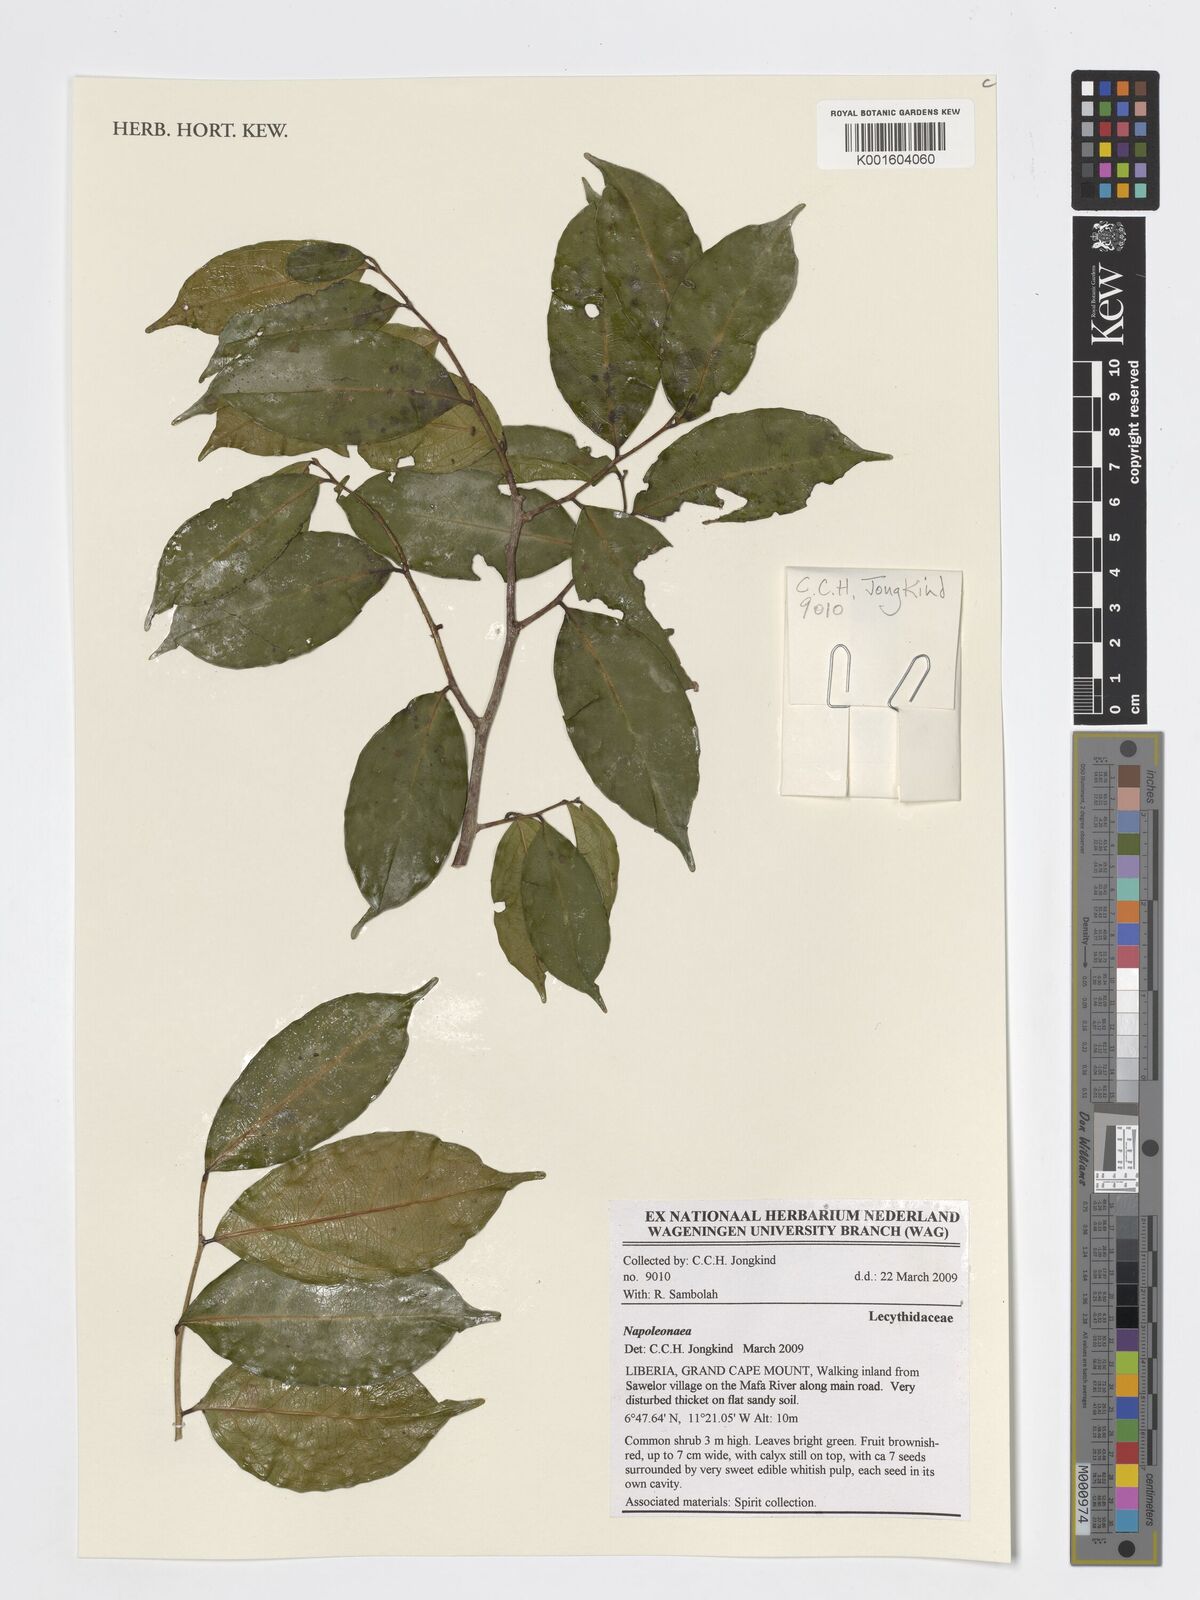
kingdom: Plantae
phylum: Tracheophyta
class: Magnoliopsida
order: Ericales
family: Lecythidaceae
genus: Napoleonaea
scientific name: Napoleonaea
